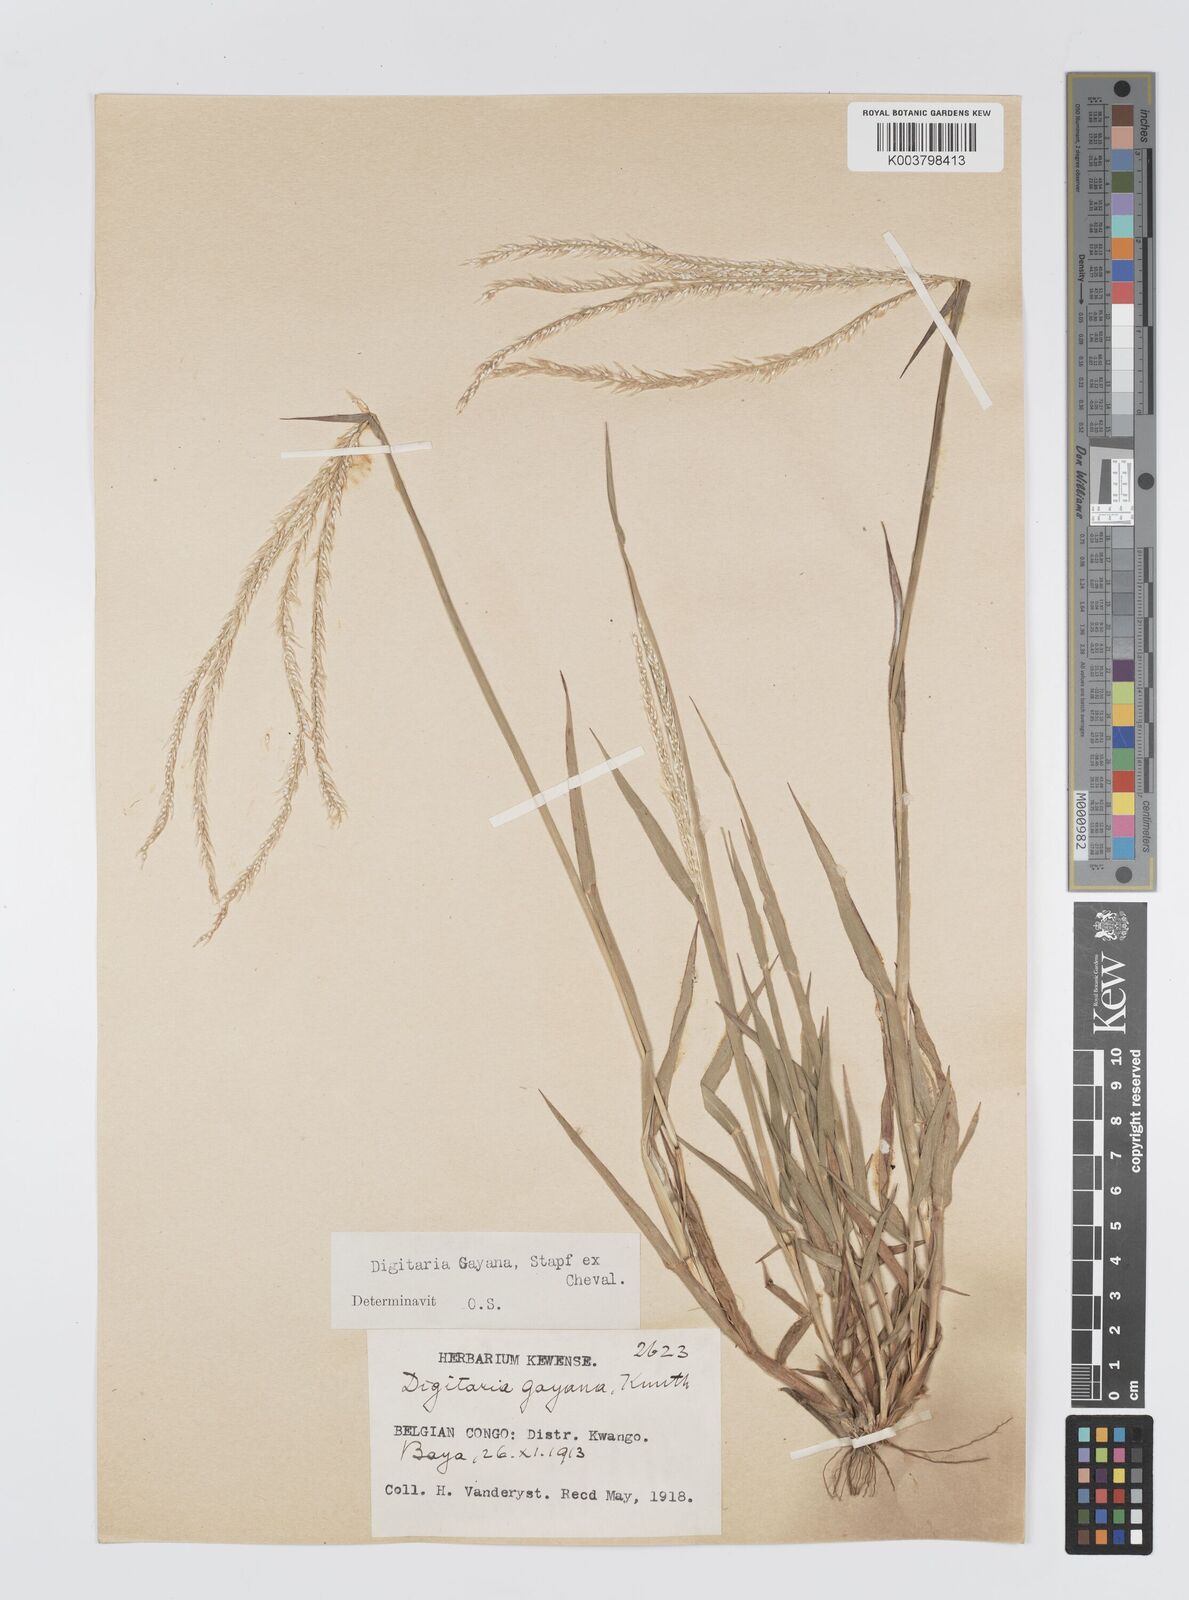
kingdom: Plantae
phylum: Tracheophyta
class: Liliopsida
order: Poales
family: Poaceae
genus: Digitaria
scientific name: Digitaria gayana
